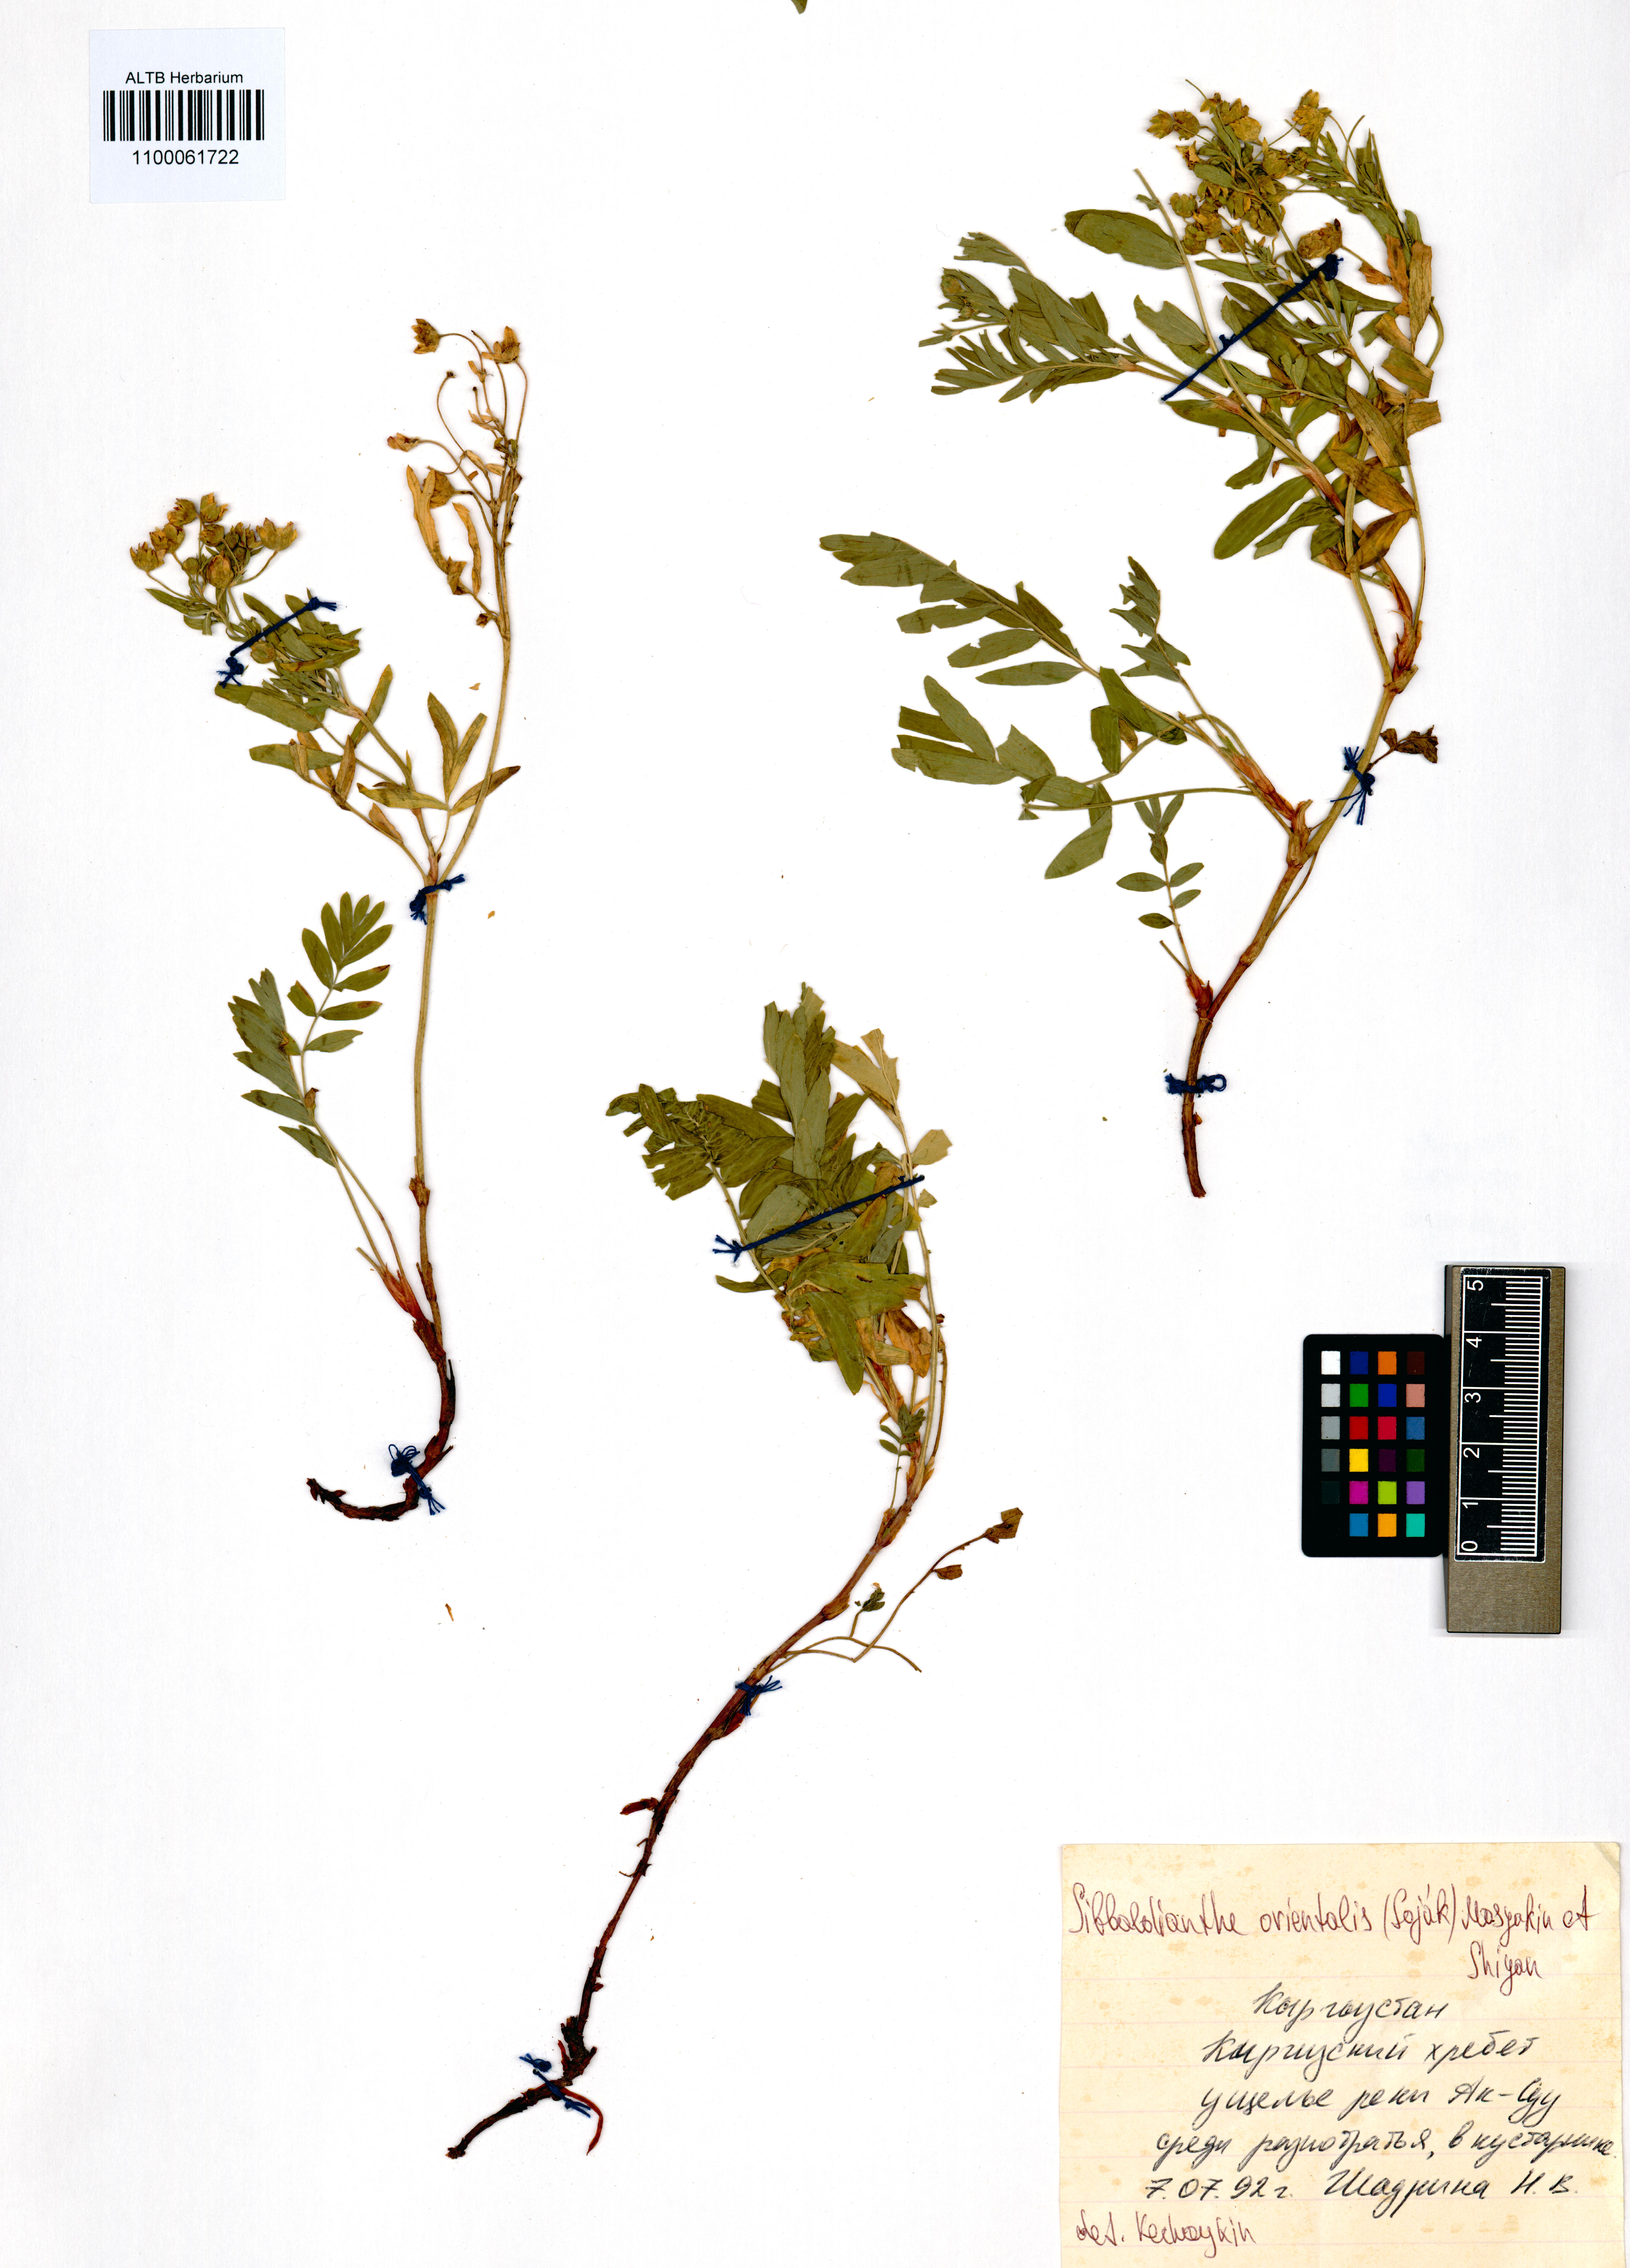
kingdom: Plantae
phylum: Tracheophyta
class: Magnoliopsida
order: Rosales
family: Rosaceae
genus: Sibbaldianthe
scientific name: Sibbaldianthe orientalis
